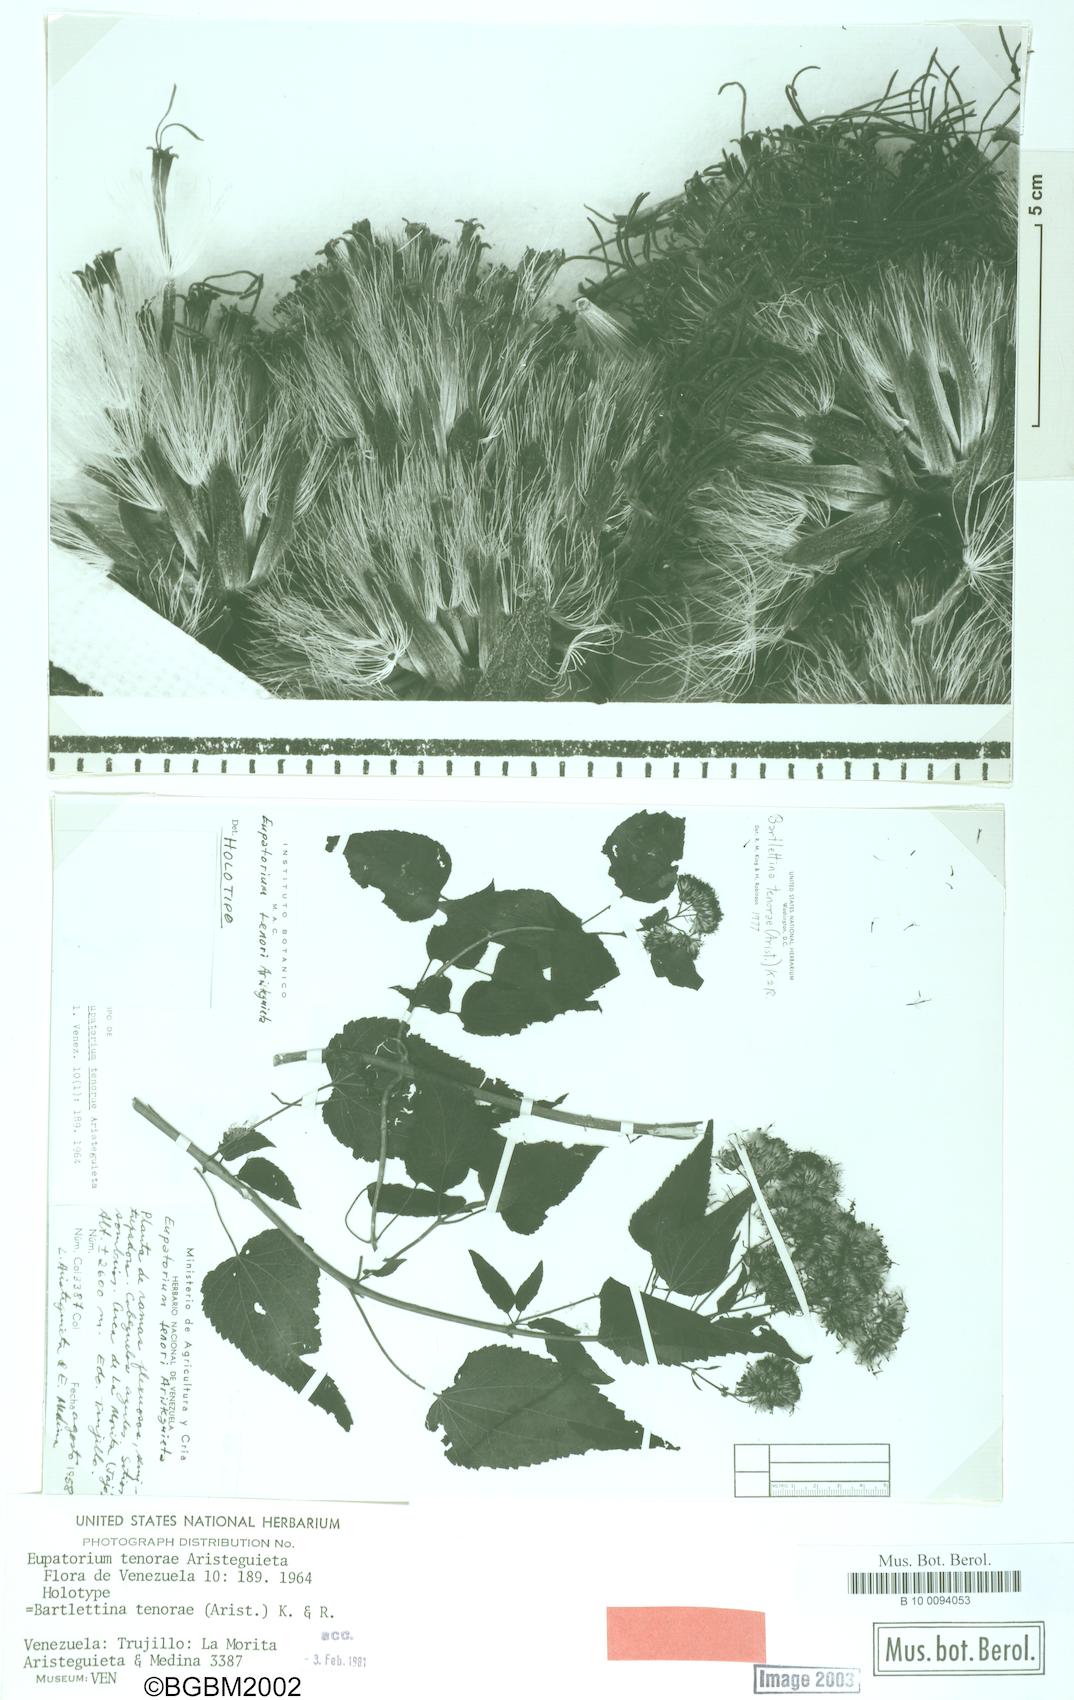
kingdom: Plantae
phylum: Tracheophyta
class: Magnoliopsida
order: Asterales
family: Asteraceae
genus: Bartlettina
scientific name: Bartlettina tenorae
